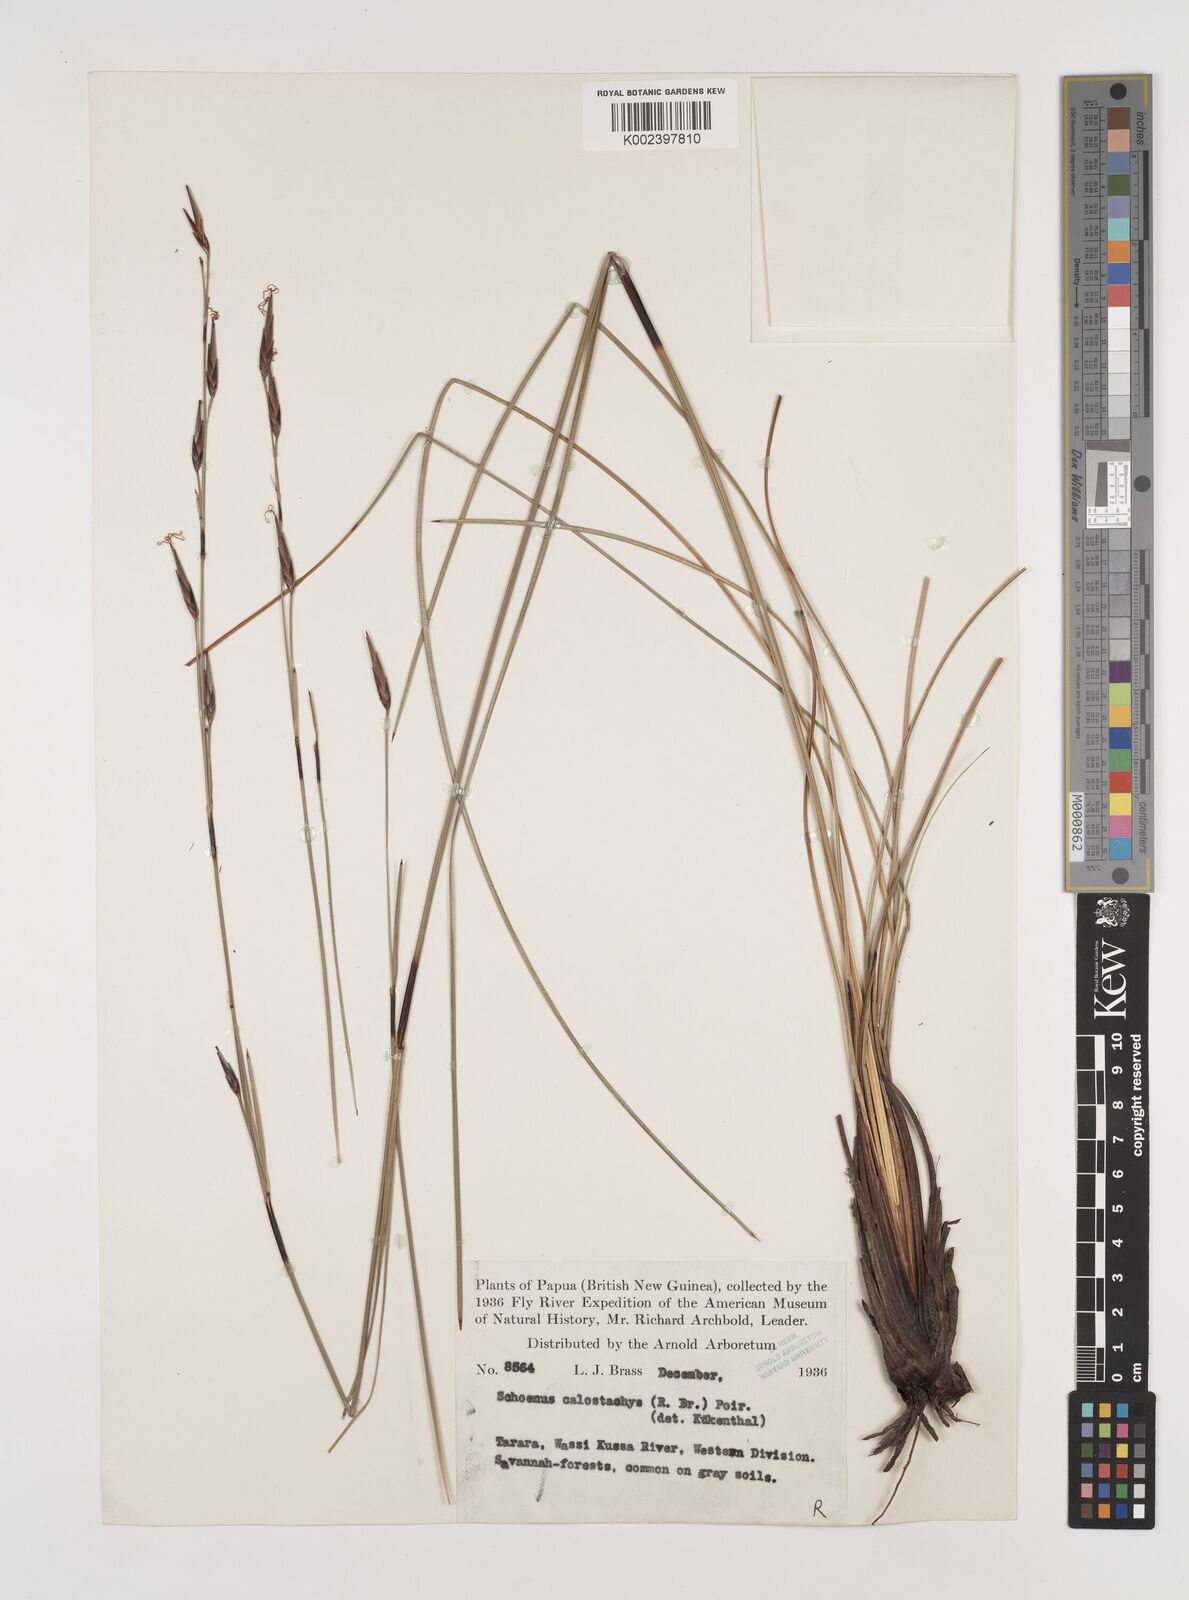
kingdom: Plantae
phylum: Tracheophyta
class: Liliopsida
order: Poales
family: Cyperaceae
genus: Schoenus
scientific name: Schoenus calostachyus
